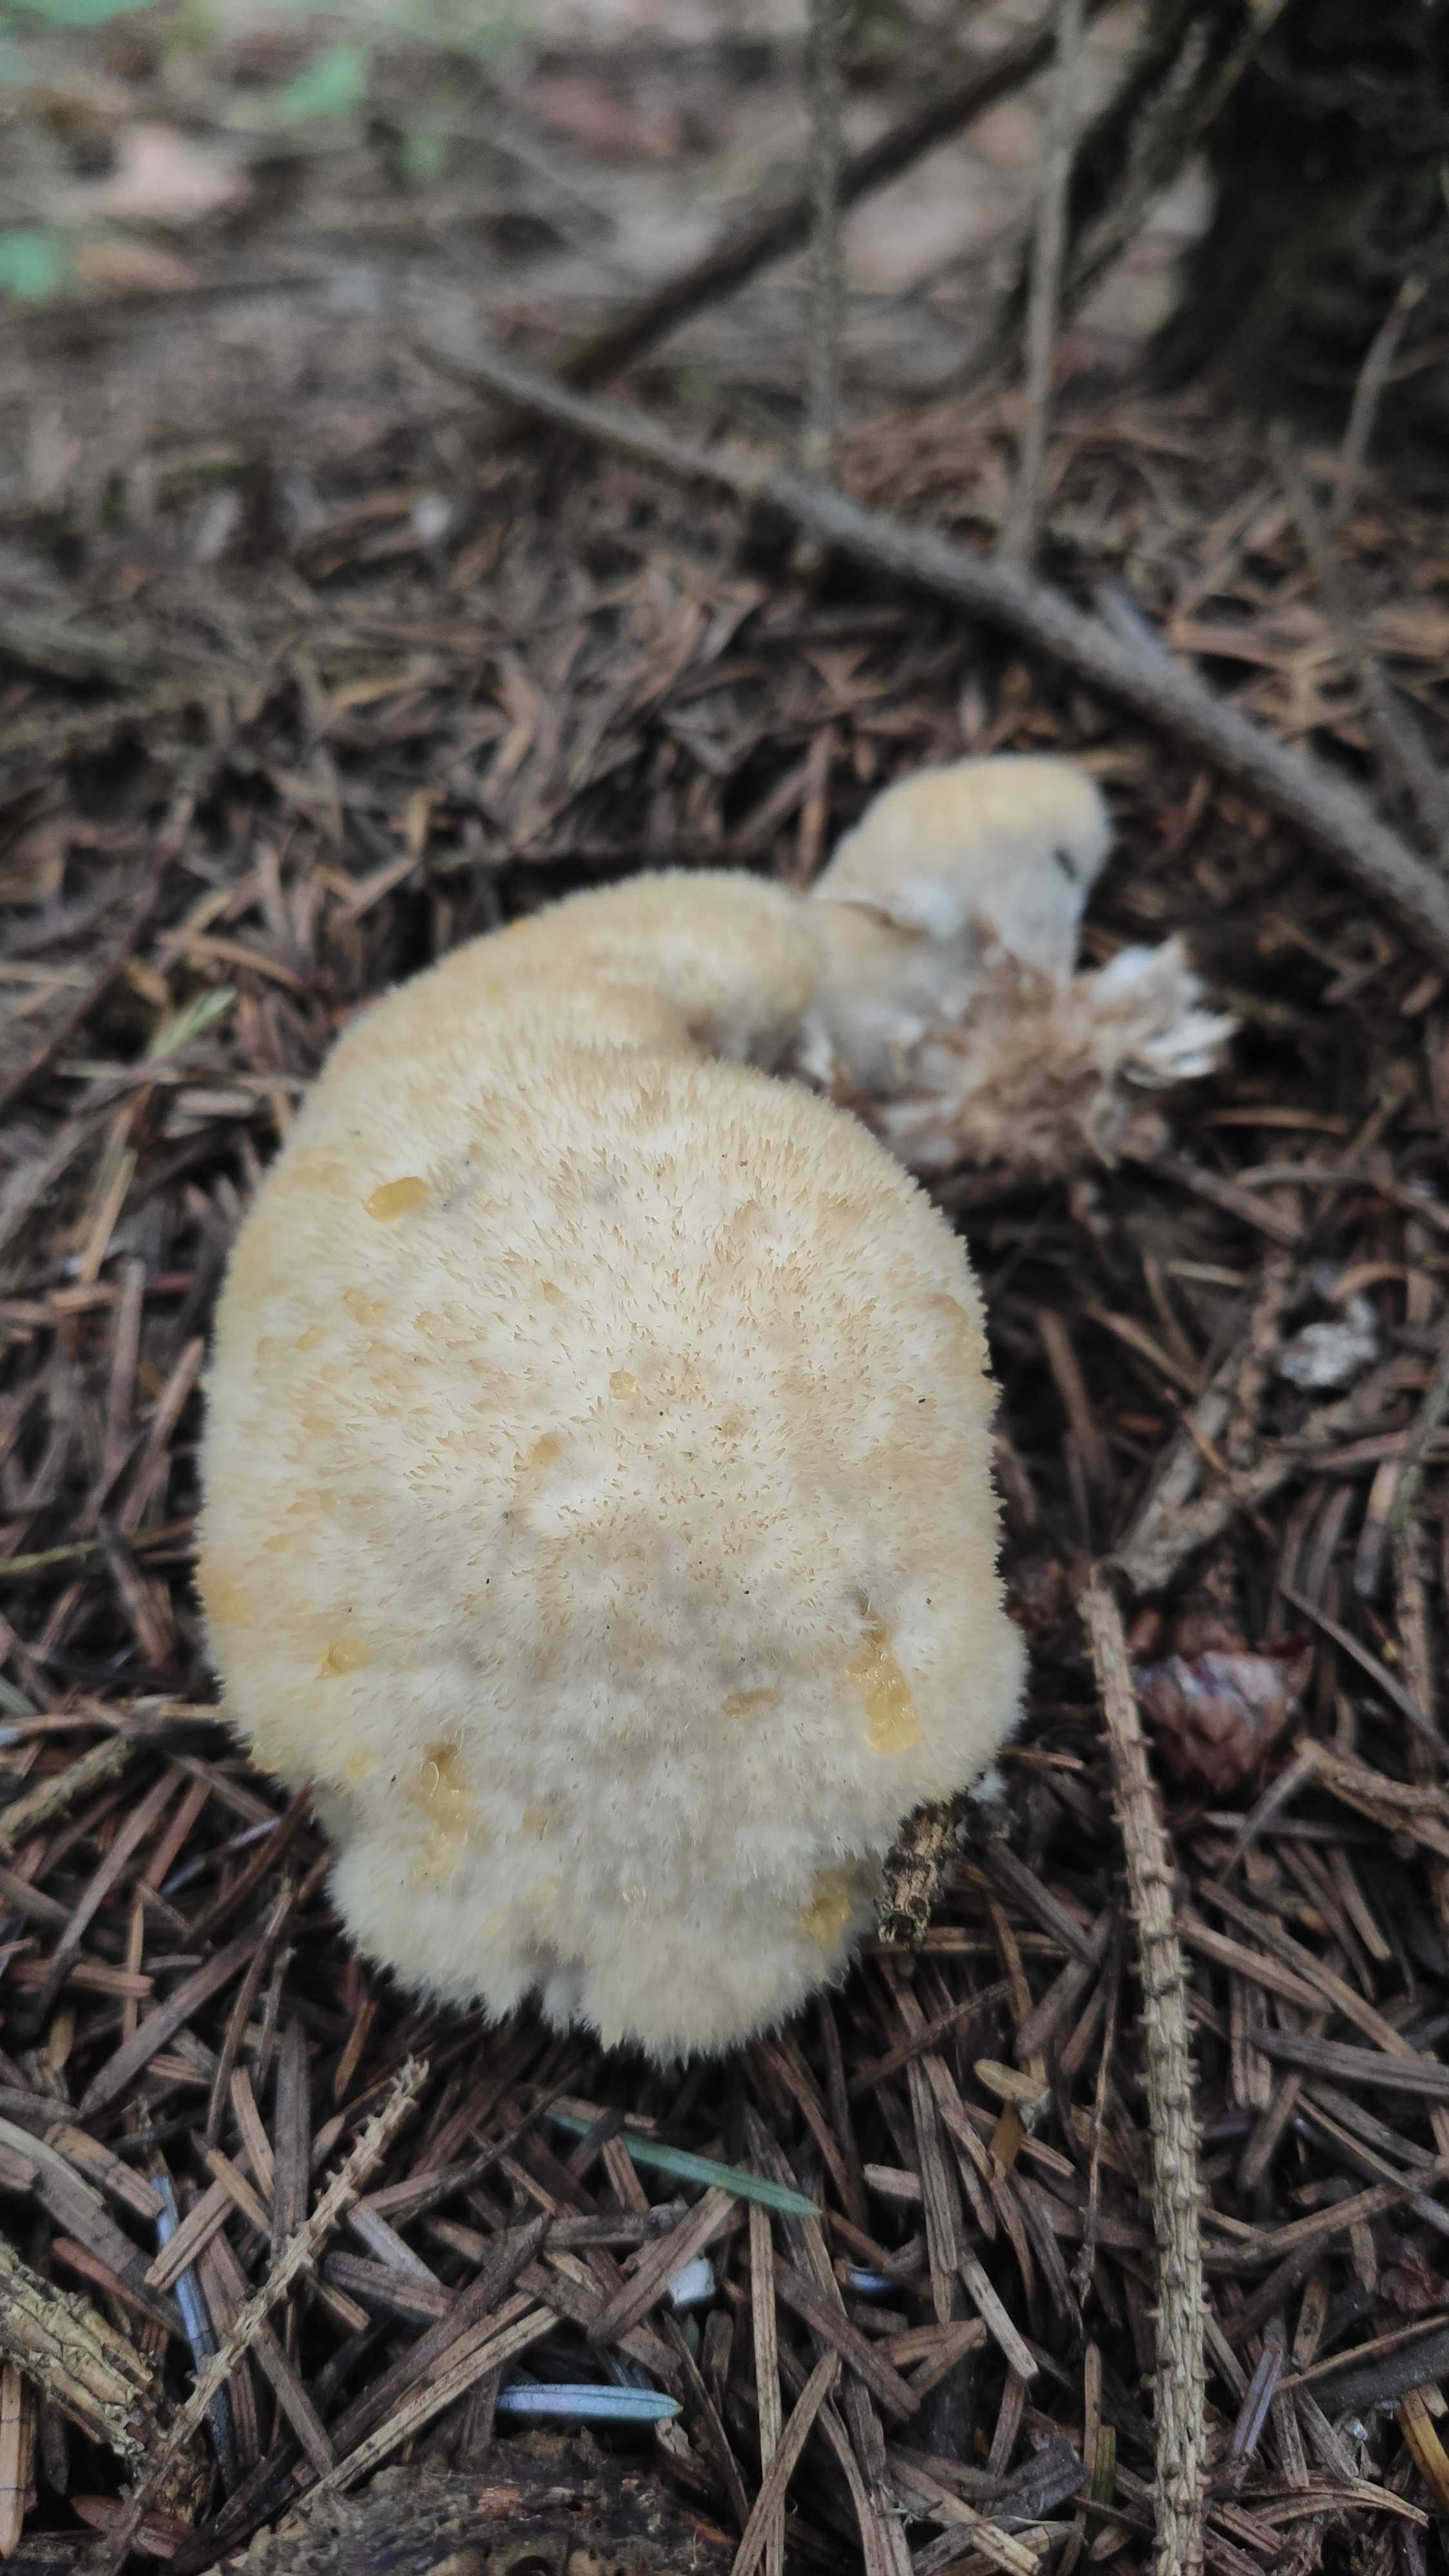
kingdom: Fungi
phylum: Basidiomycota
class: Agaricomycetes
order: Polyporales
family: Dacryobolaceae
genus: Postia
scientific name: Postia ptychogaster
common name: støvende kødporesvamp
